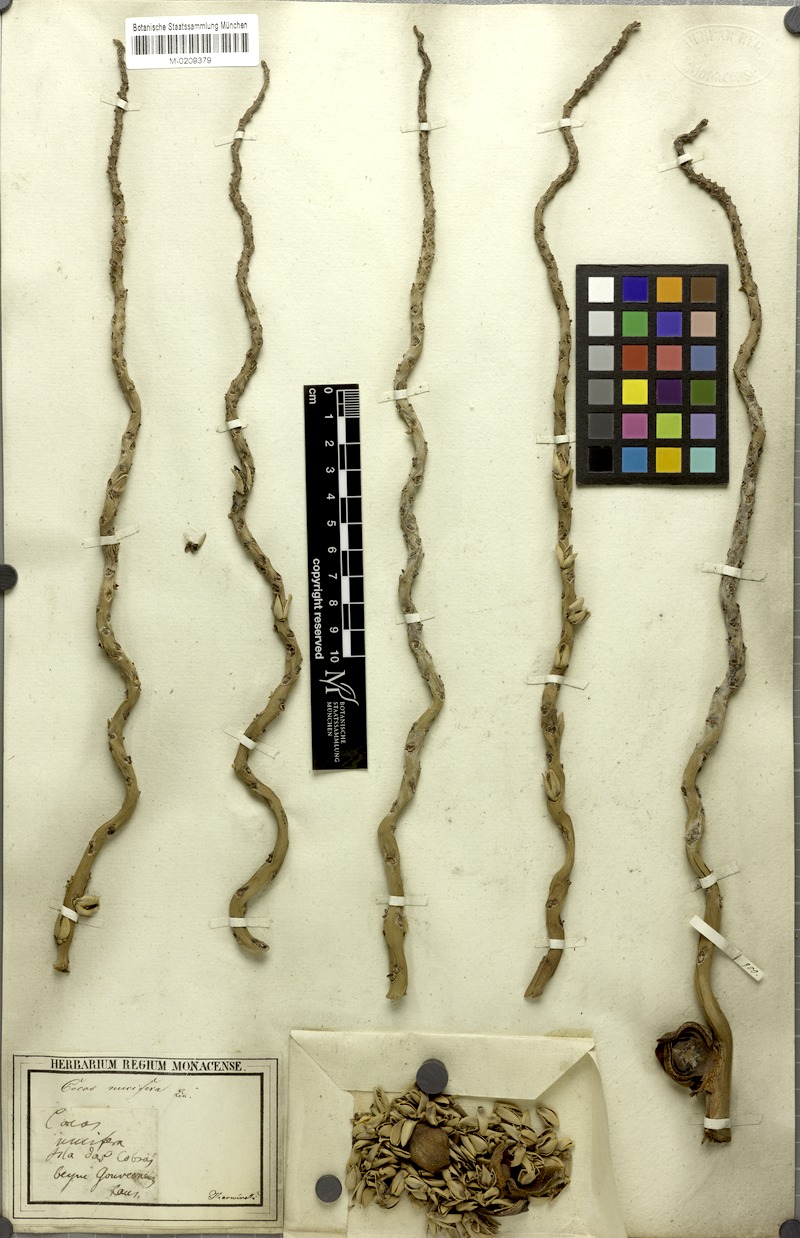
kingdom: Plantae
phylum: Tracheophyta
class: Liliopsida
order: Arecales
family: Arecaceae
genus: Cocos
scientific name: Cocos nucifera
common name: Coconut palm
